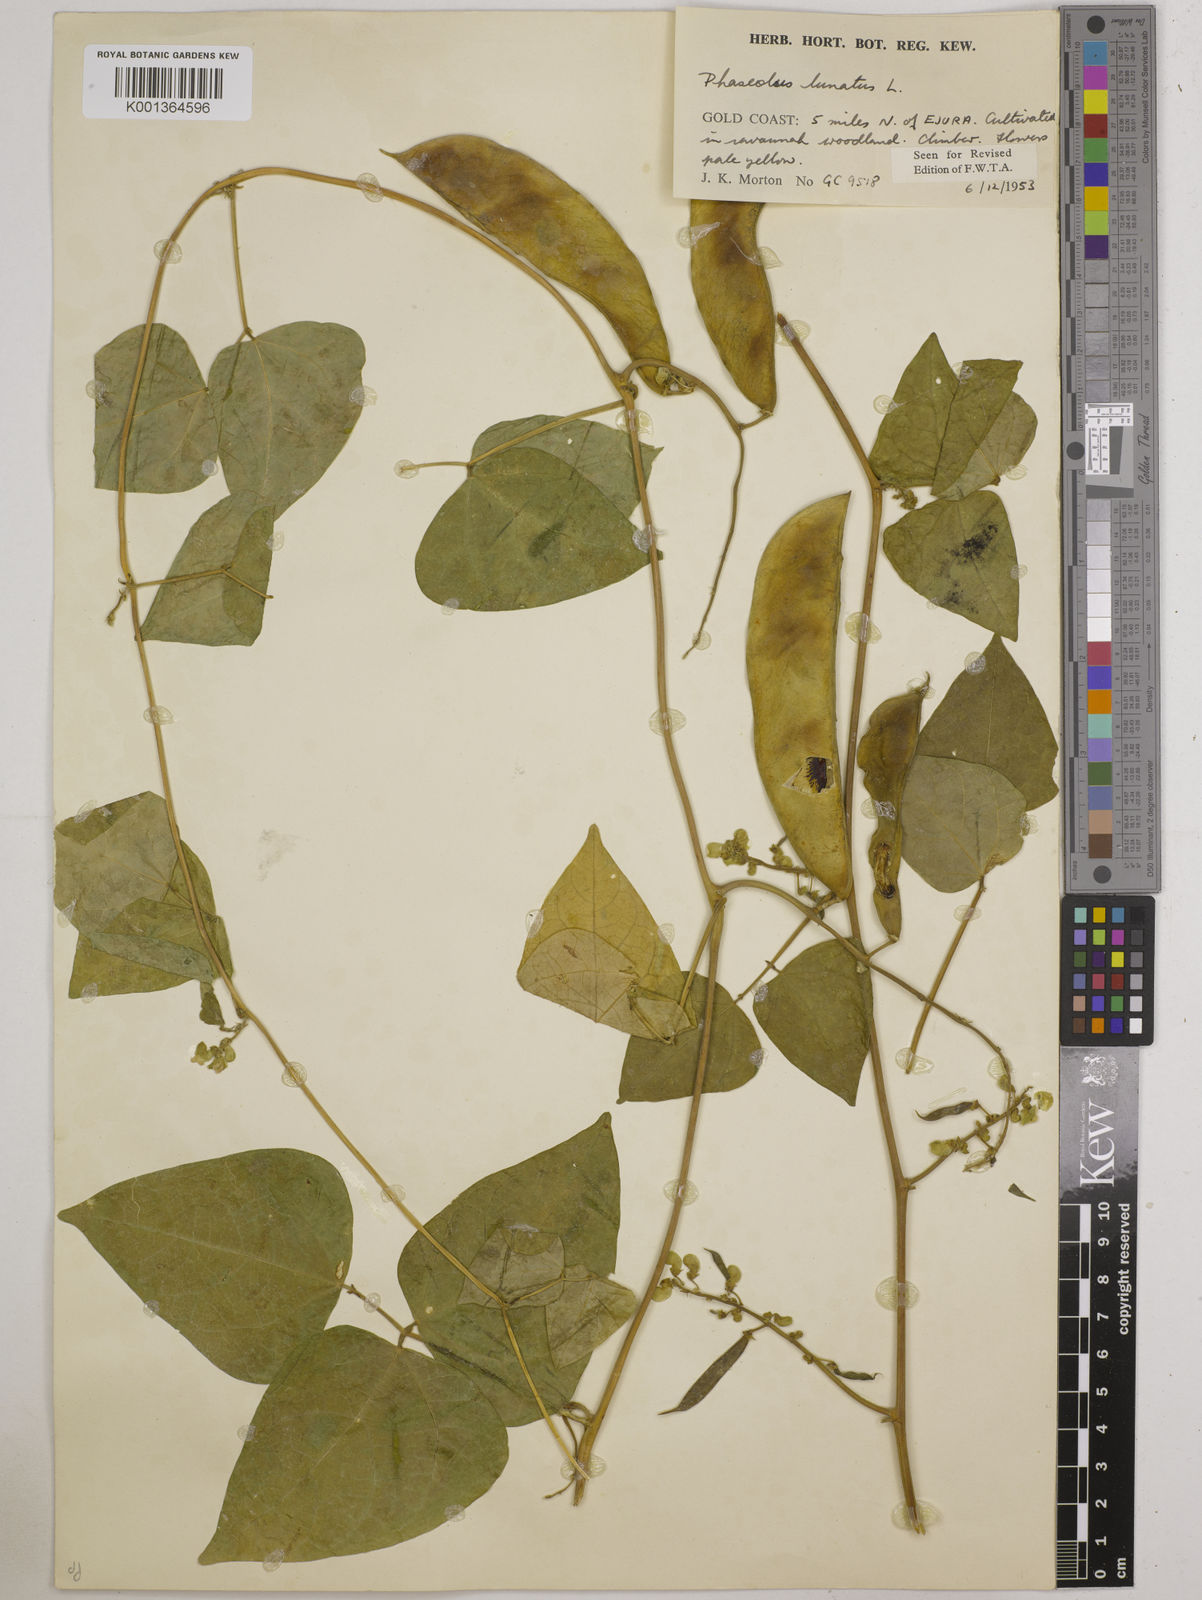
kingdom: Plantae
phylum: Tracheophyta
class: Magnoliopsida
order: Fabales
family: Fabaceae
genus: Phaseolus
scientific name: Phaseolus lunatus
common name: Sieva bean
